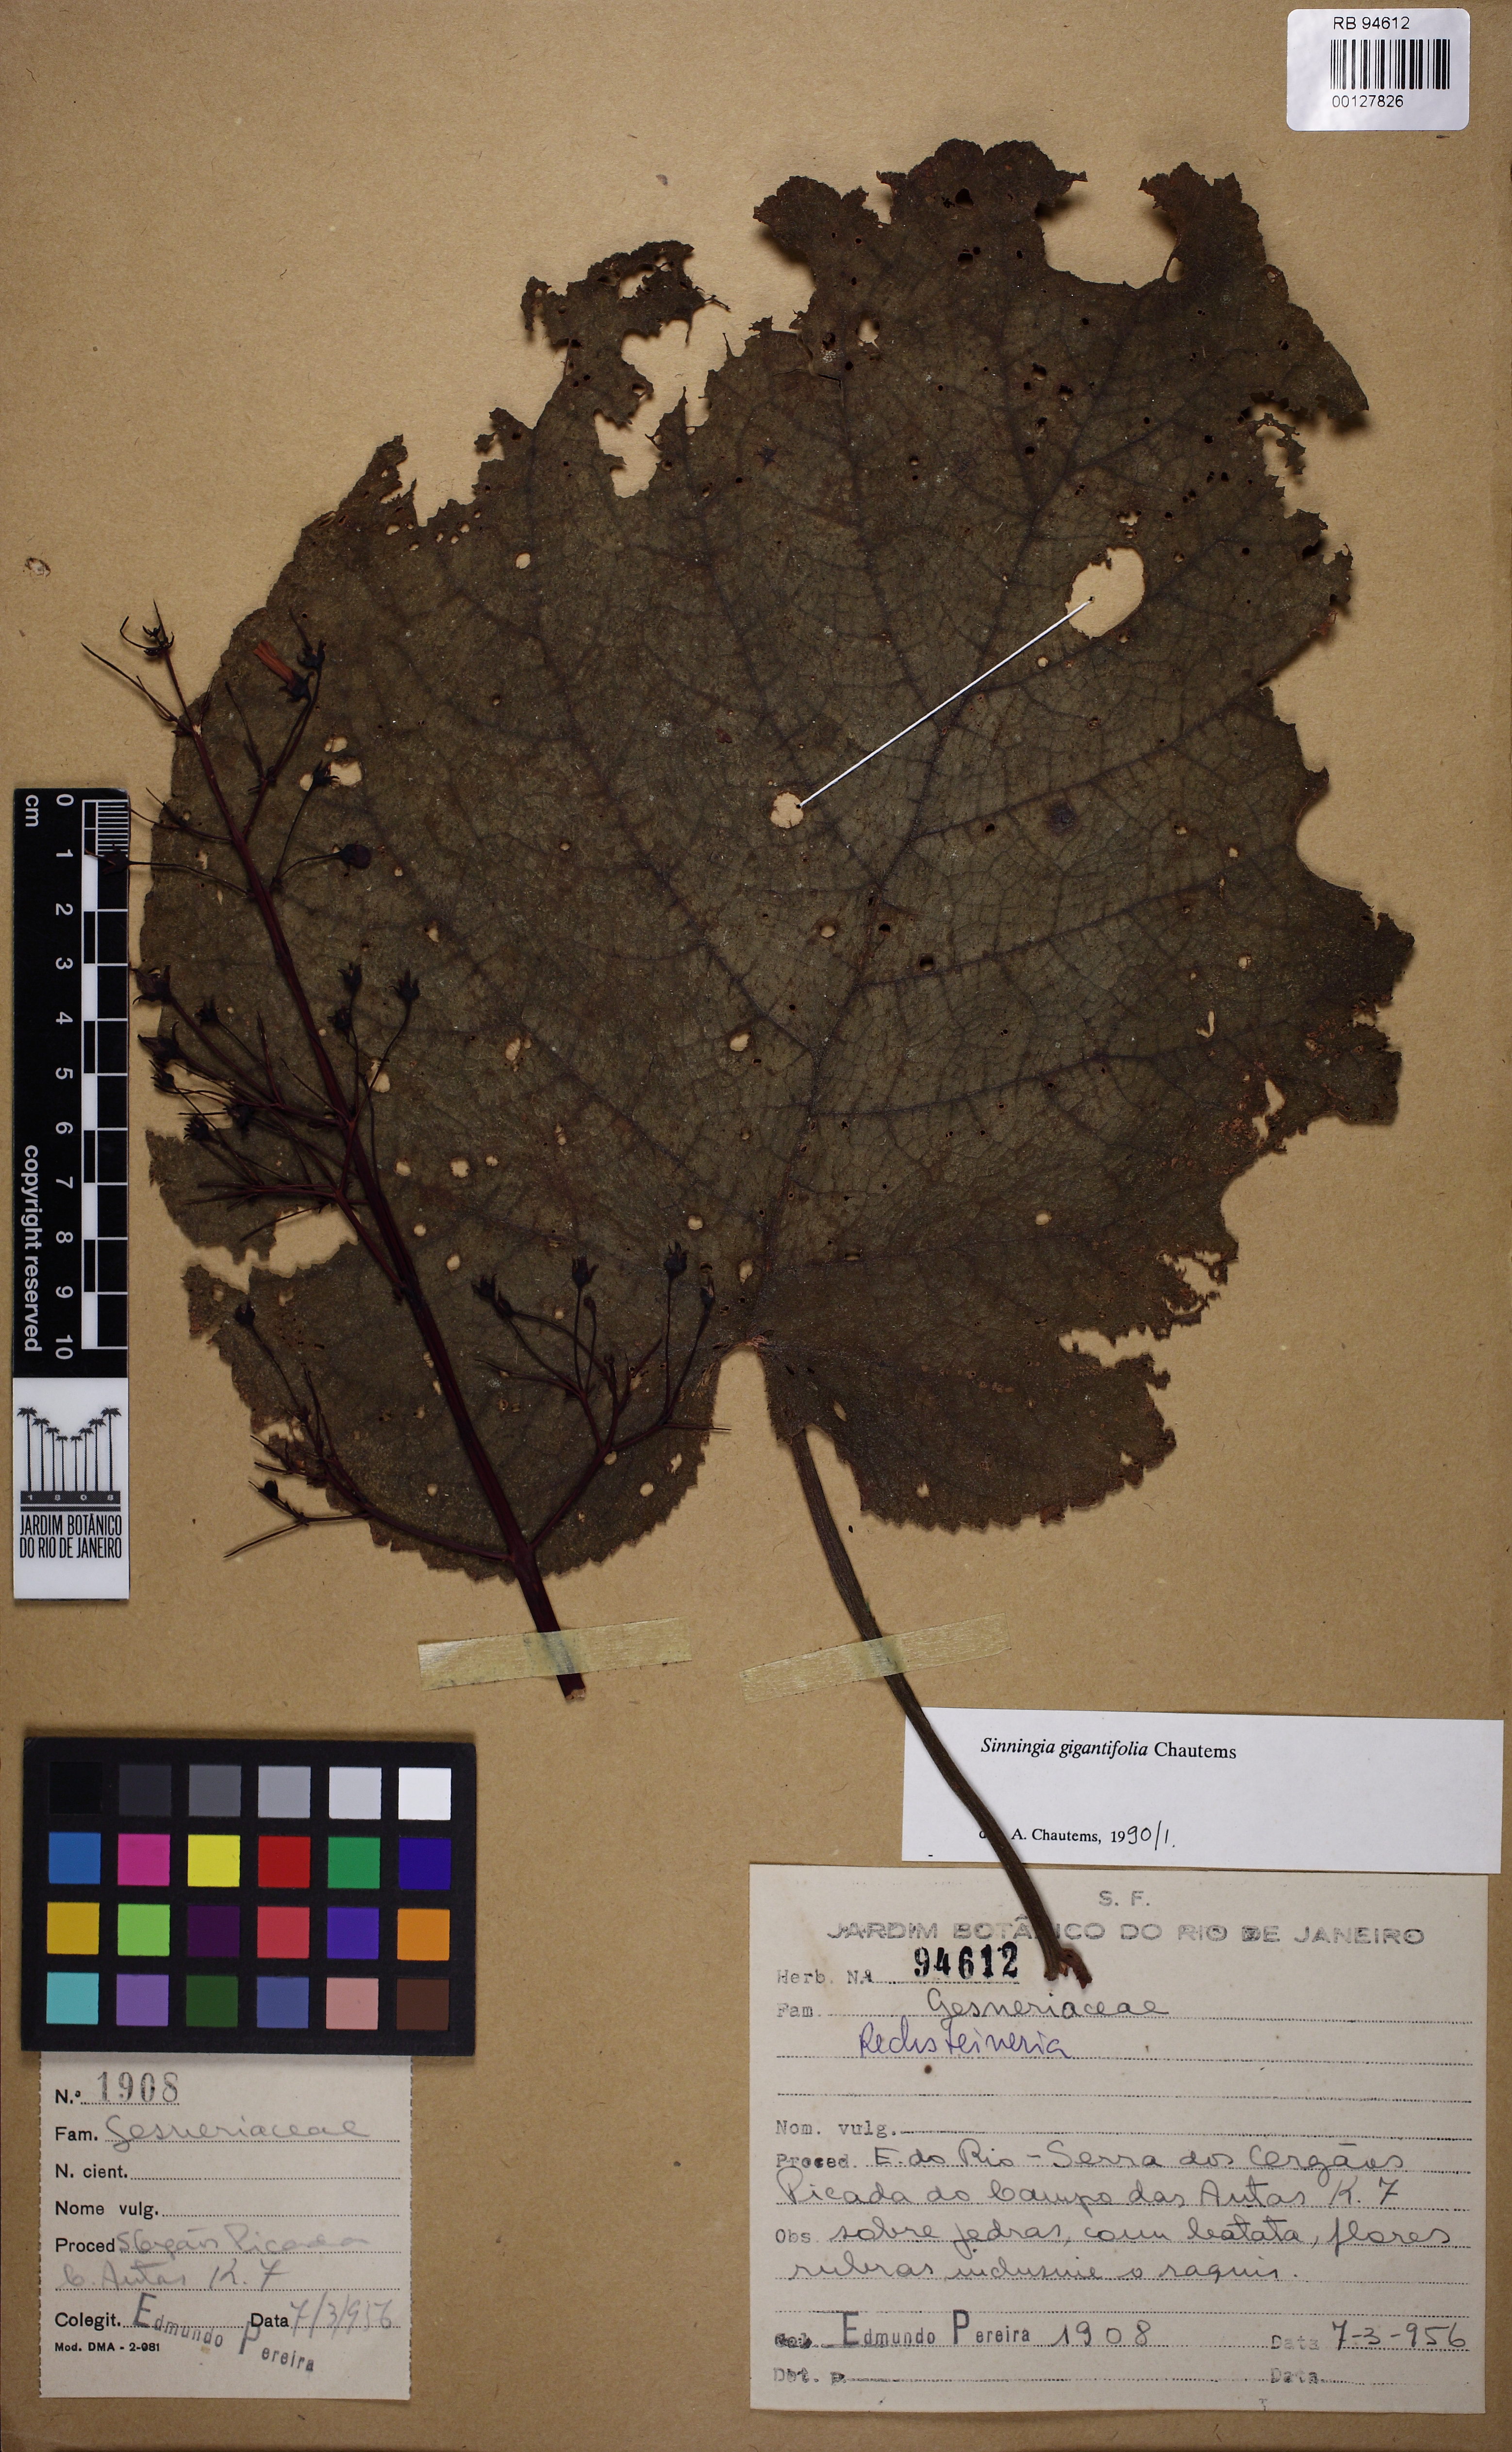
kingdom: Plantae
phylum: Tracheophyta
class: Magnoliopsida
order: Lamiales
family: Gesneriaceae
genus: Sinningia
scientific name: Sinningia gigantifolia
